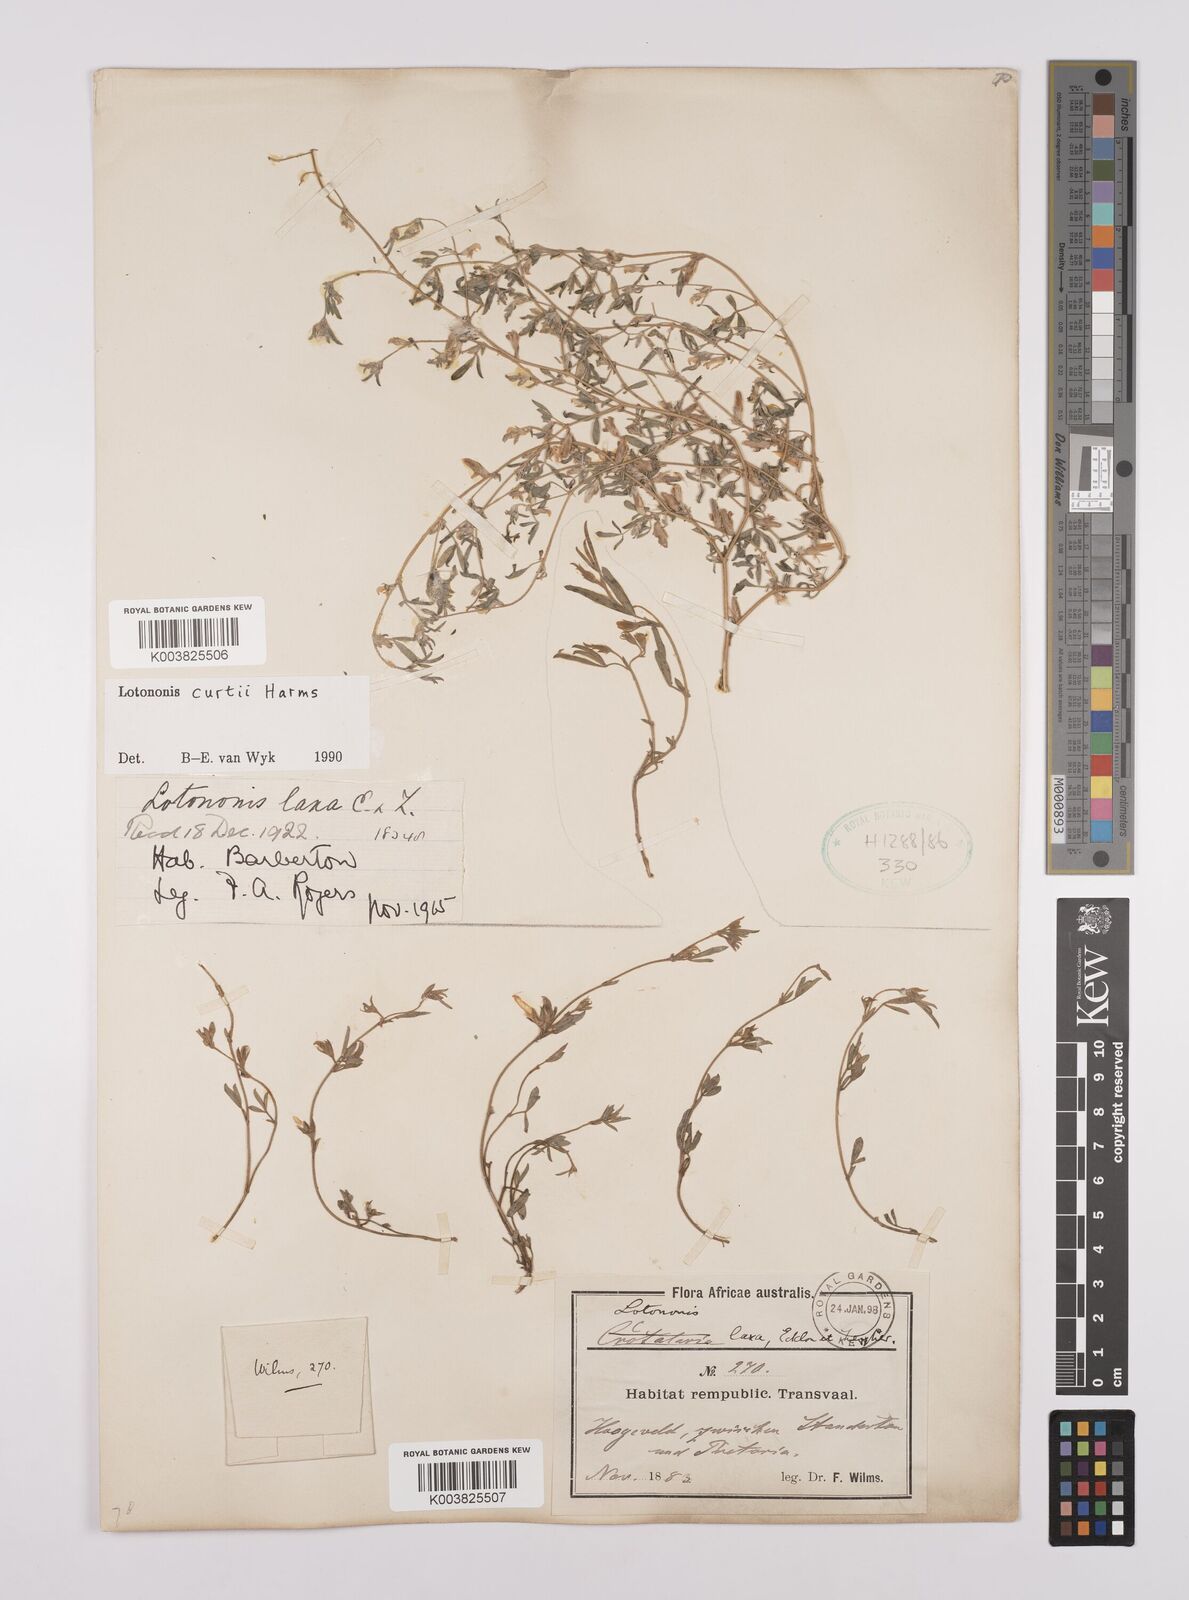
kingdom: Plantae
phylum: Tracheophyta
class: Magnoliopsida
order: Fabales
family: Fabaceae
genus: Lotononis
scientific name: Lotononis curtii
